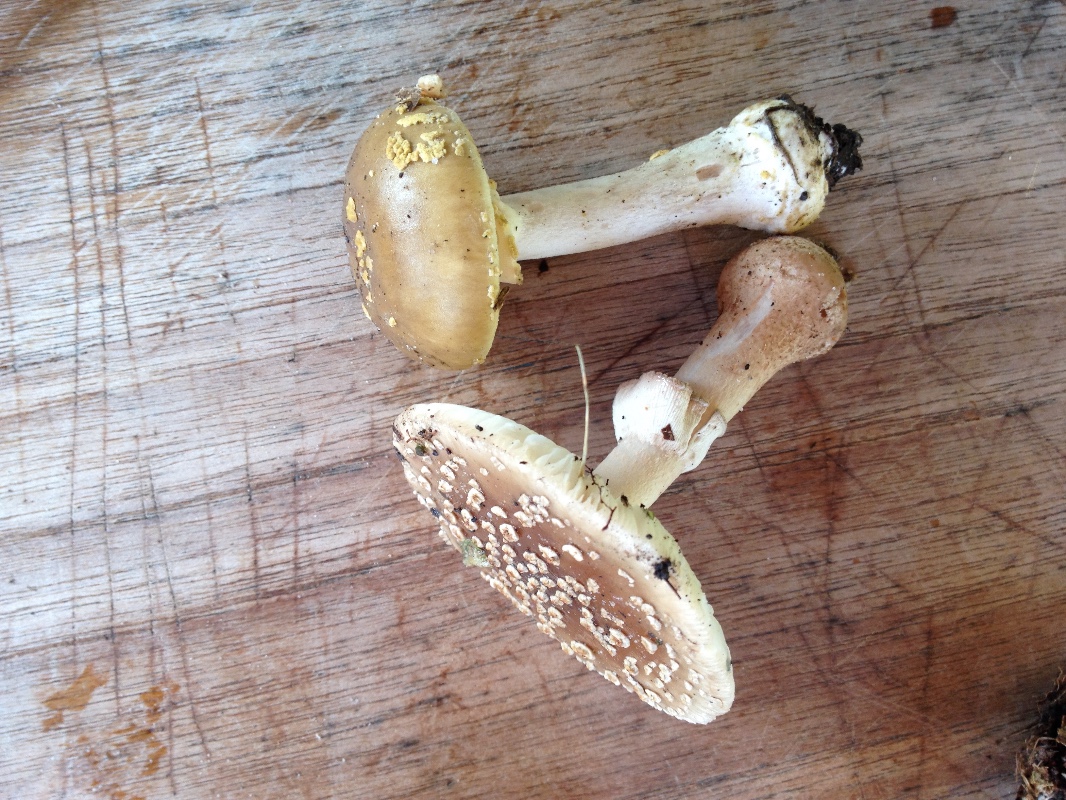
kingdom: Fungi
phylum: Basidiomycota
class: Agaricomycetes
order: Agaricales
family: Amanitaceae
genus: Amanita
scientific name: Amanita
